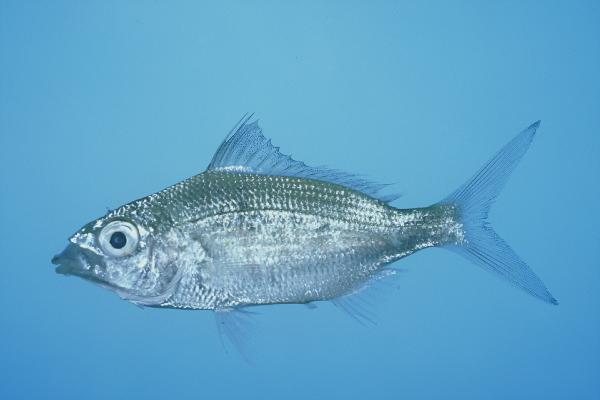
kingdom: Animalia
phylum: Chordata
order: Perciformes
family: Gerreidae
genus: Gerres
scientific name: Gerres longirostris
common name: Strongspine silver-biddy
